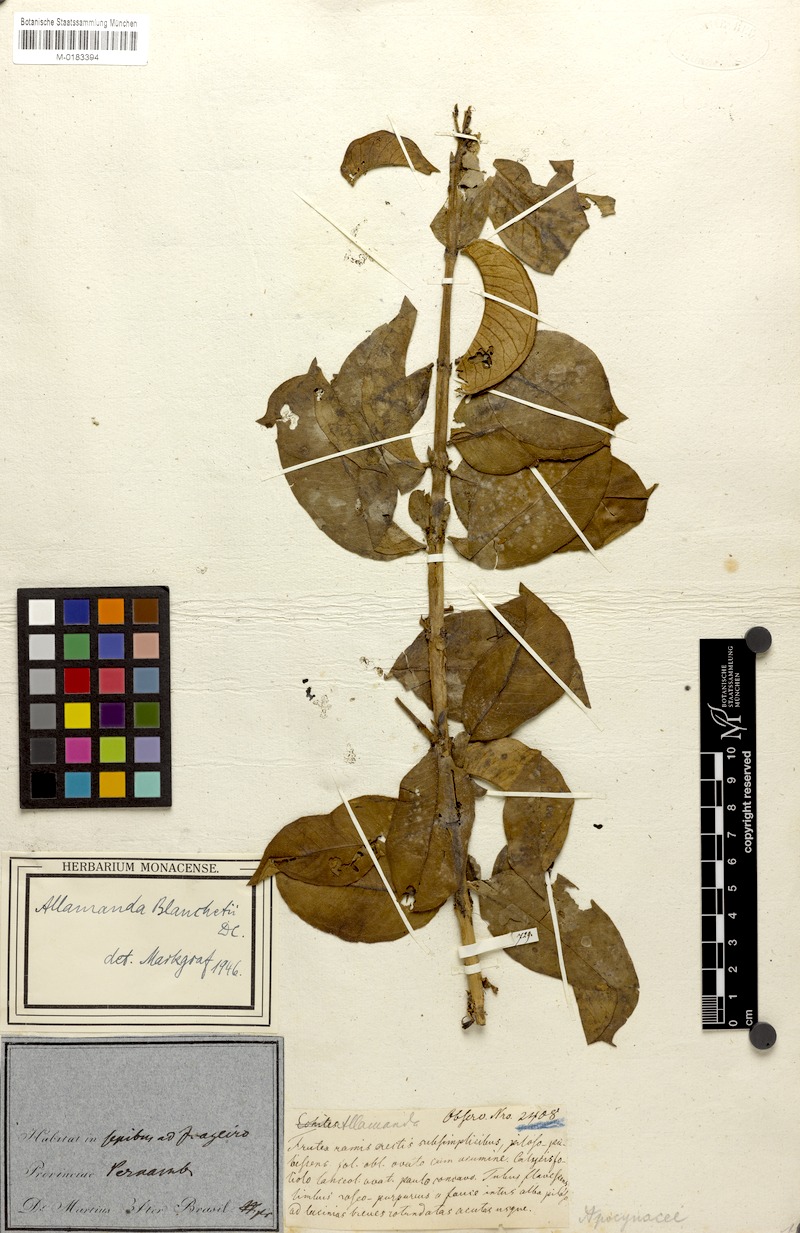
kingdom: Plantae
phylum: Tracheophyta
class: Magnoliopsida
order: Gentianales
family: Apocynaceae
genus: Allamanda
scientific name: Allamanda blanchetii
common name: Purple allamanda
